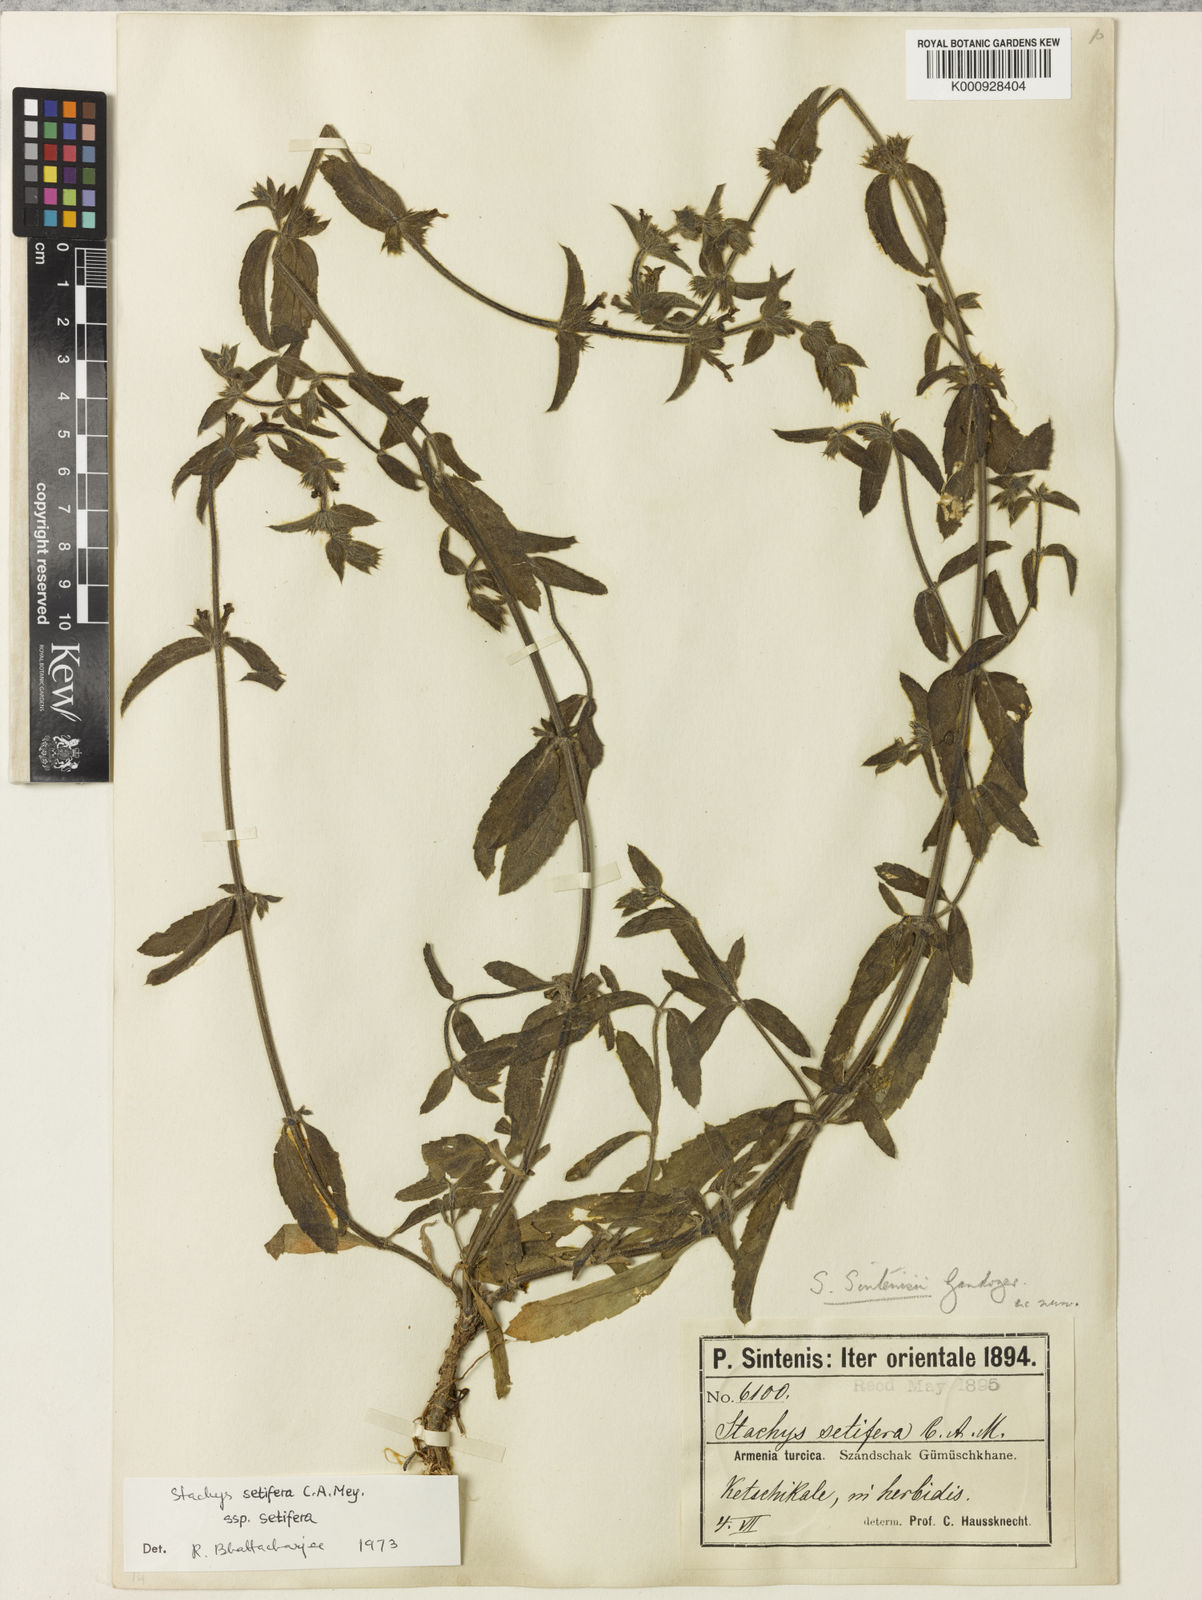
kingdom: Plantae
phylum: Tracheophyta
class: Magnoliopsida
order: Lamiales
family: Lamiaceae
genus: Stachys
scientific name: Stachys setifera
